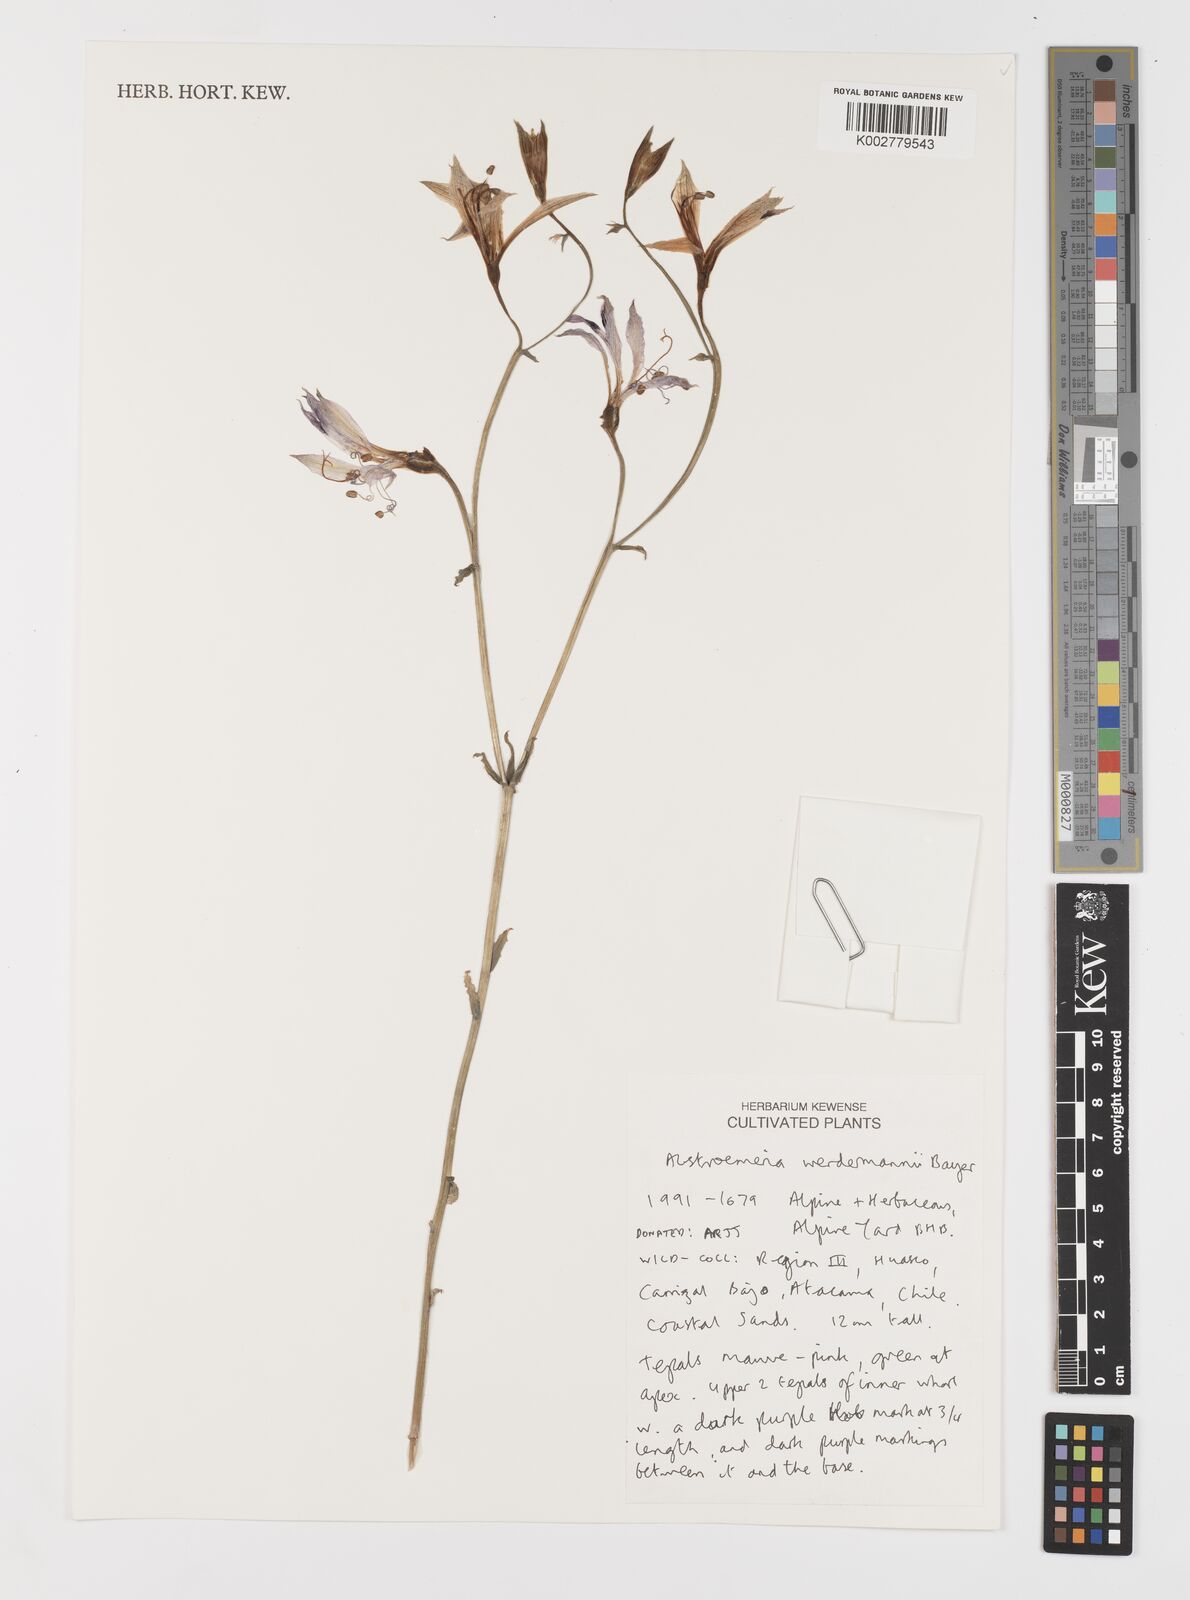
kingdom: Plantae
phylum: Tracheophyta
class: Liliopsida
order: Liliales
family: Alstroemeriaceae
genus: Alstroemeria
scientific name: Alstroemeria werdermannii
